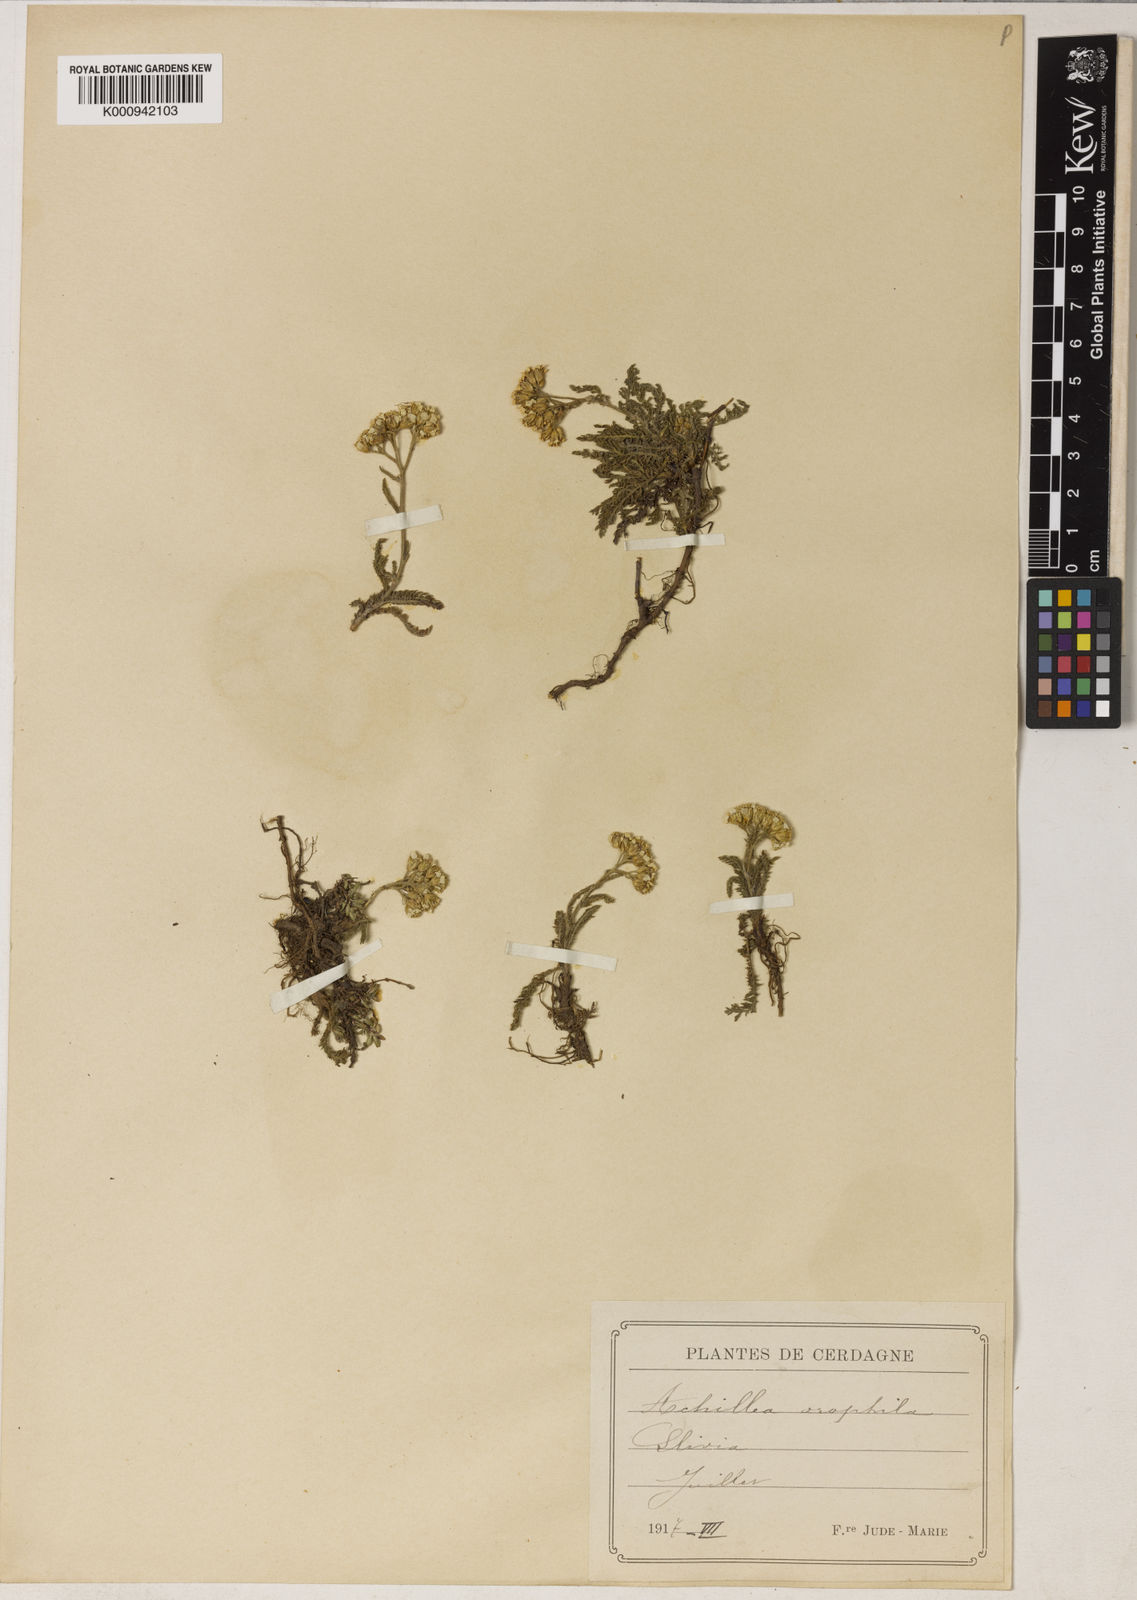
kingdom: Plantae
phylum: Tracheophyta
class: Magnoliopsida
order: Asterales
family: Asteraceae
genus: Achillea
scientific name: Achillea
